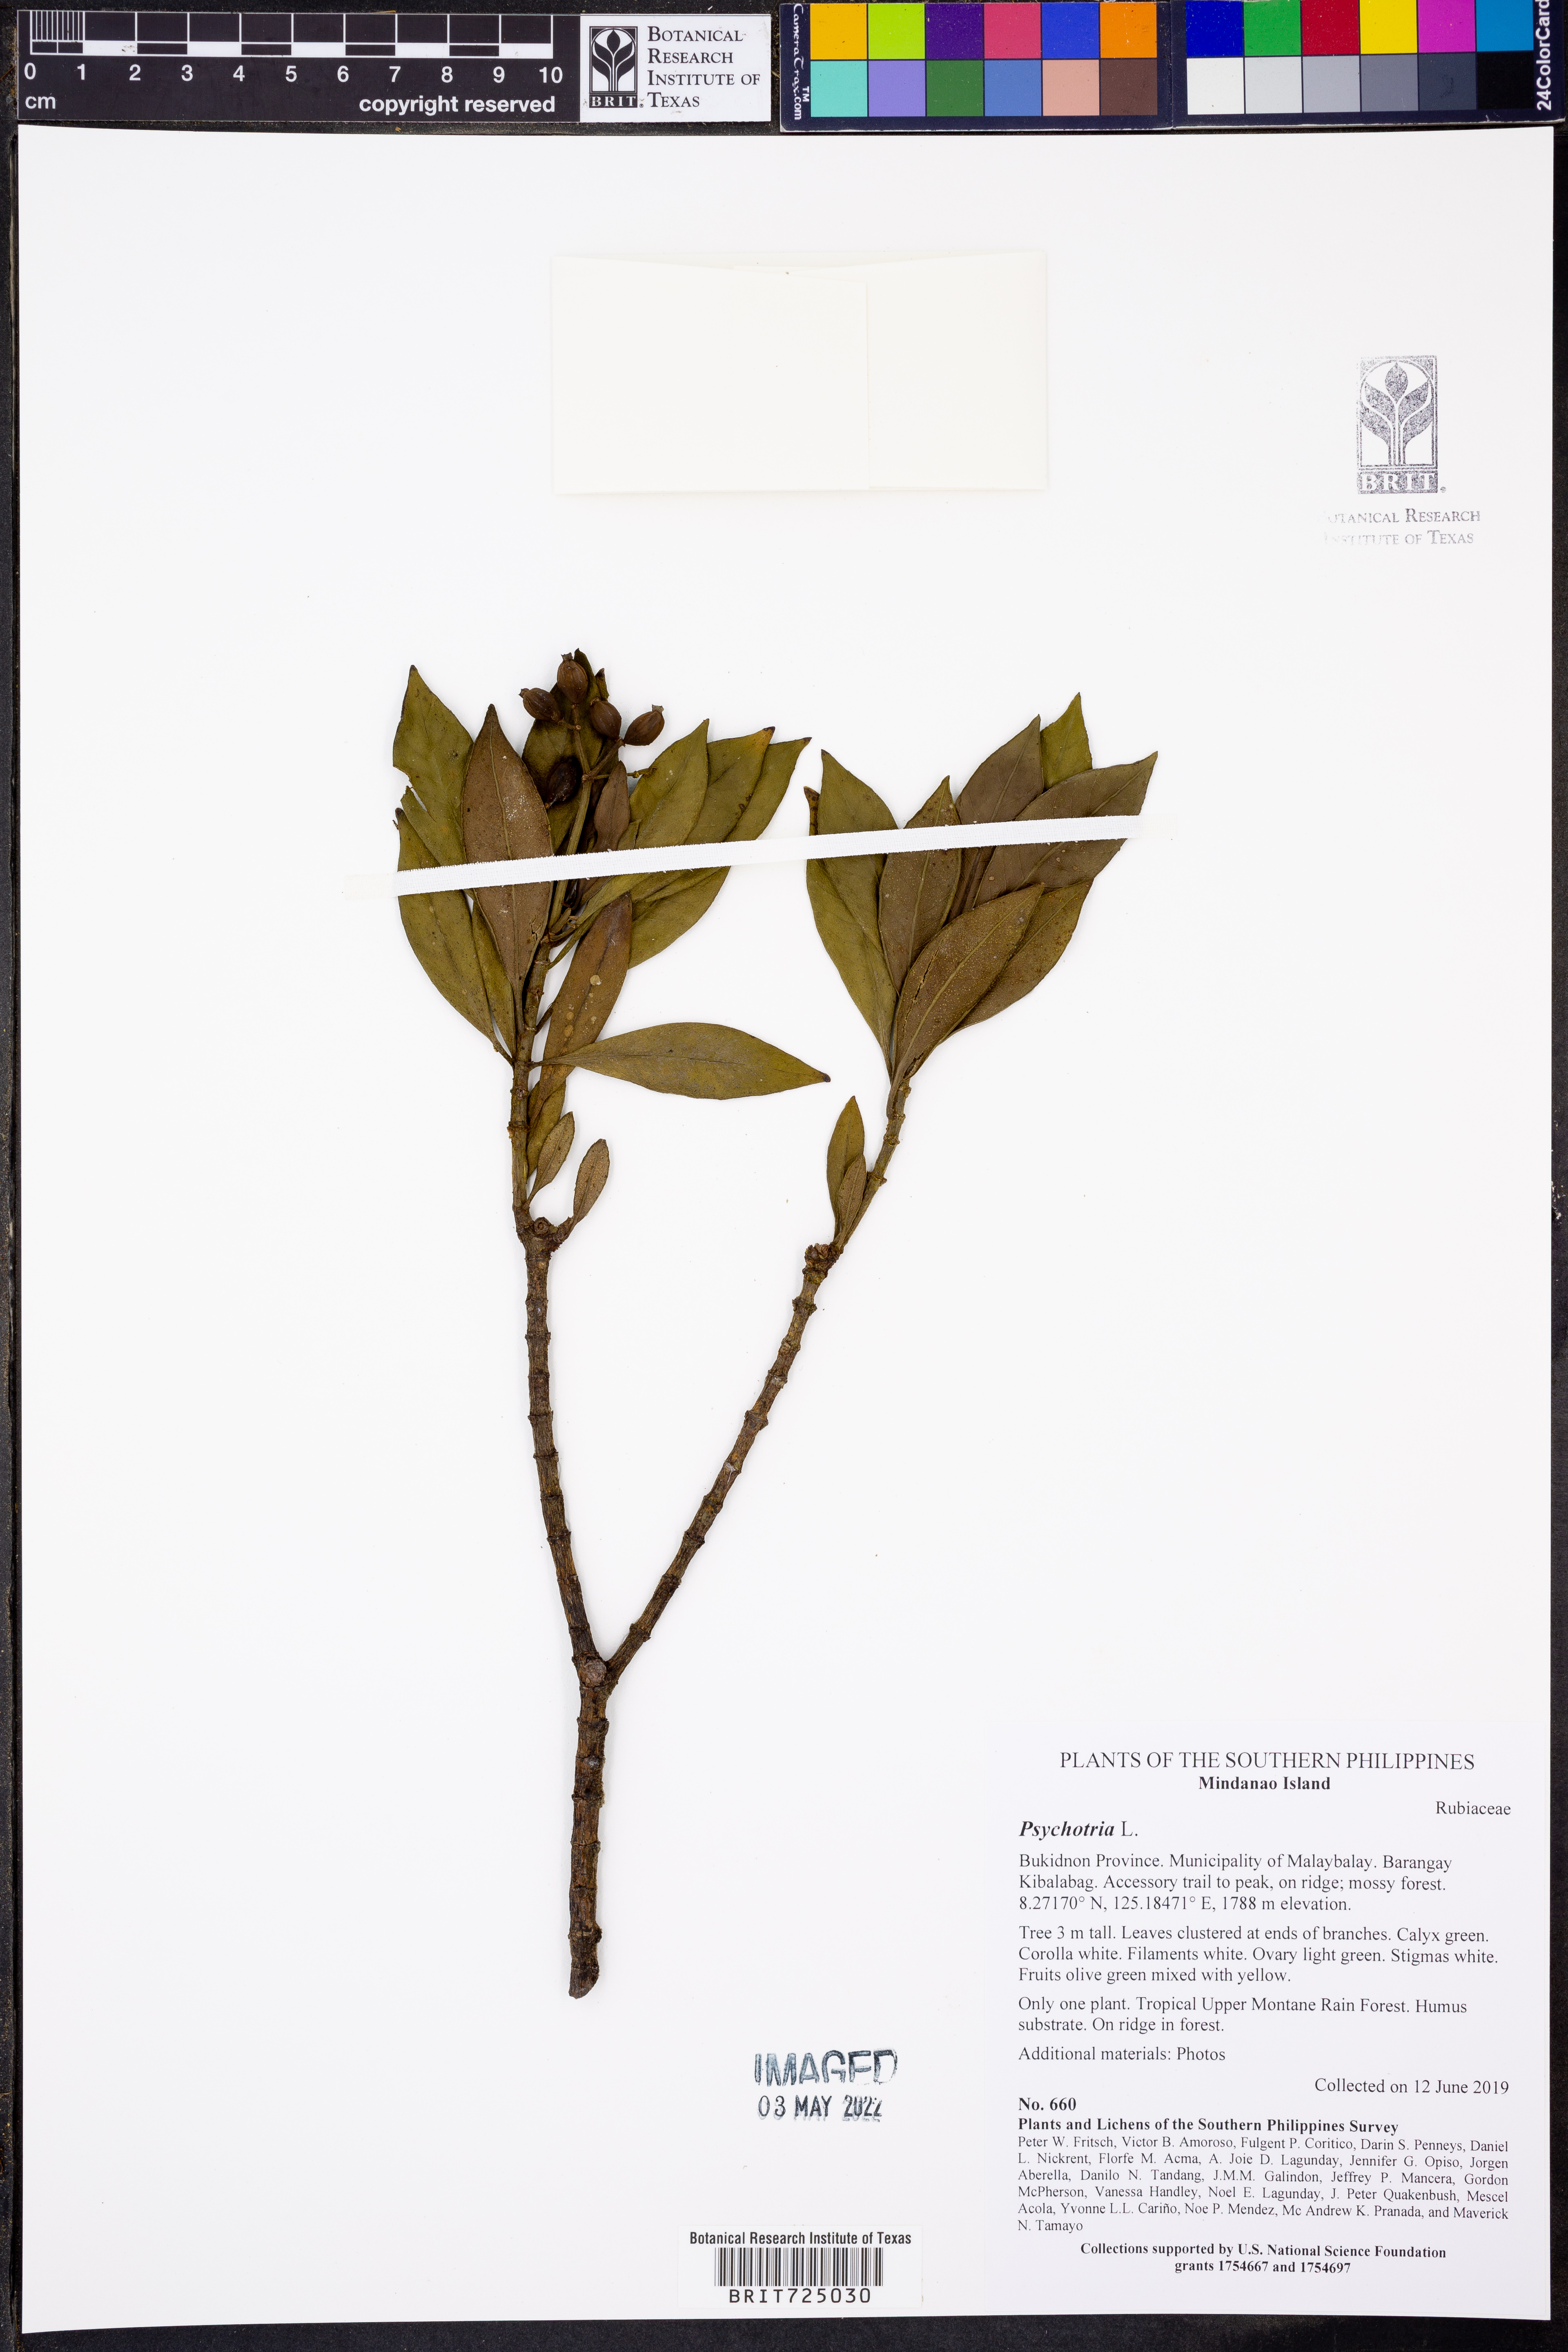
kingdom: Plantae
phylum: Tracheophyta
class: Magnoliopsida
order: Gentianales
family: Rubiaceae
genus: Psychotria
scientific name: Psychotria
